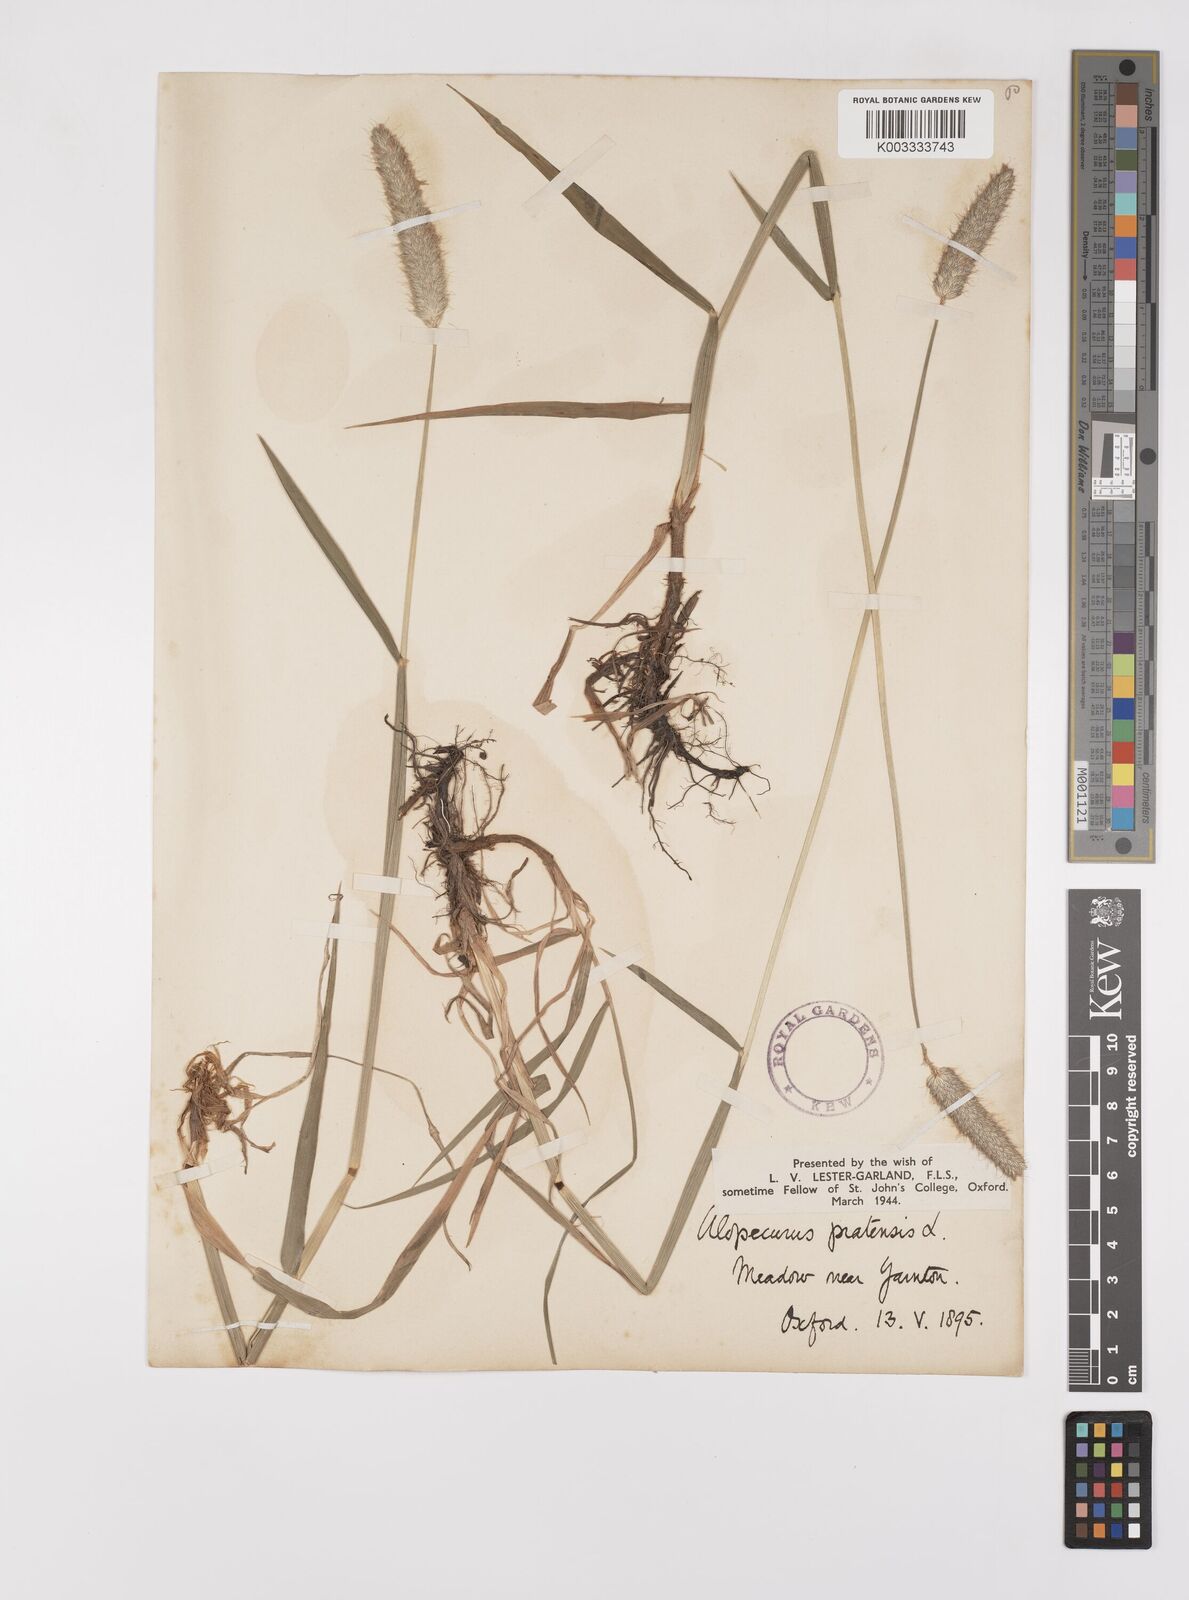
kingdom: Plantae
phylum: Tracheophyta
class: Liliopsida
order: Poales
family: Poaceae
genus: Alopecurus
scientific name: Alopecurus pratensis
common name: Meadow foxtail
